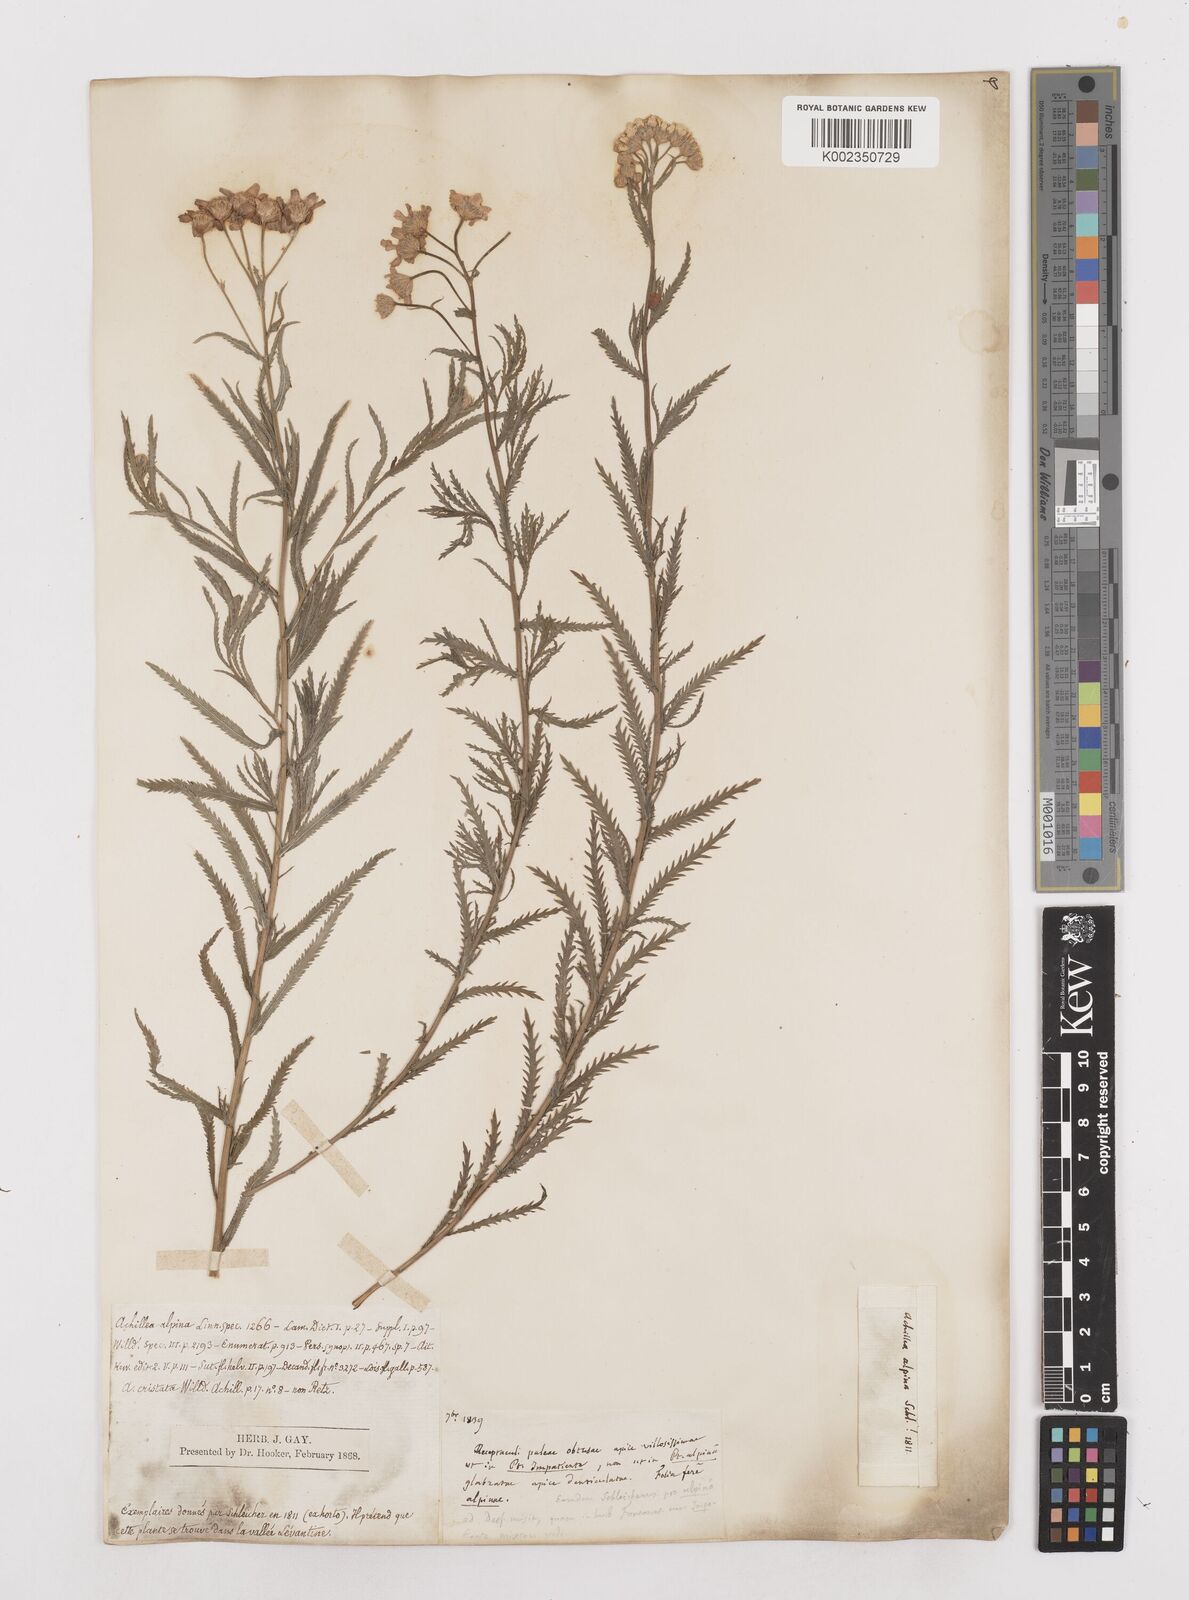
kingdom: Plantae
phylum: Tracheophyta
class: Magnoliopsida
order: Asterales
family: Asteraceae
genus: Achillea
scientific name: Achillea impatiens
